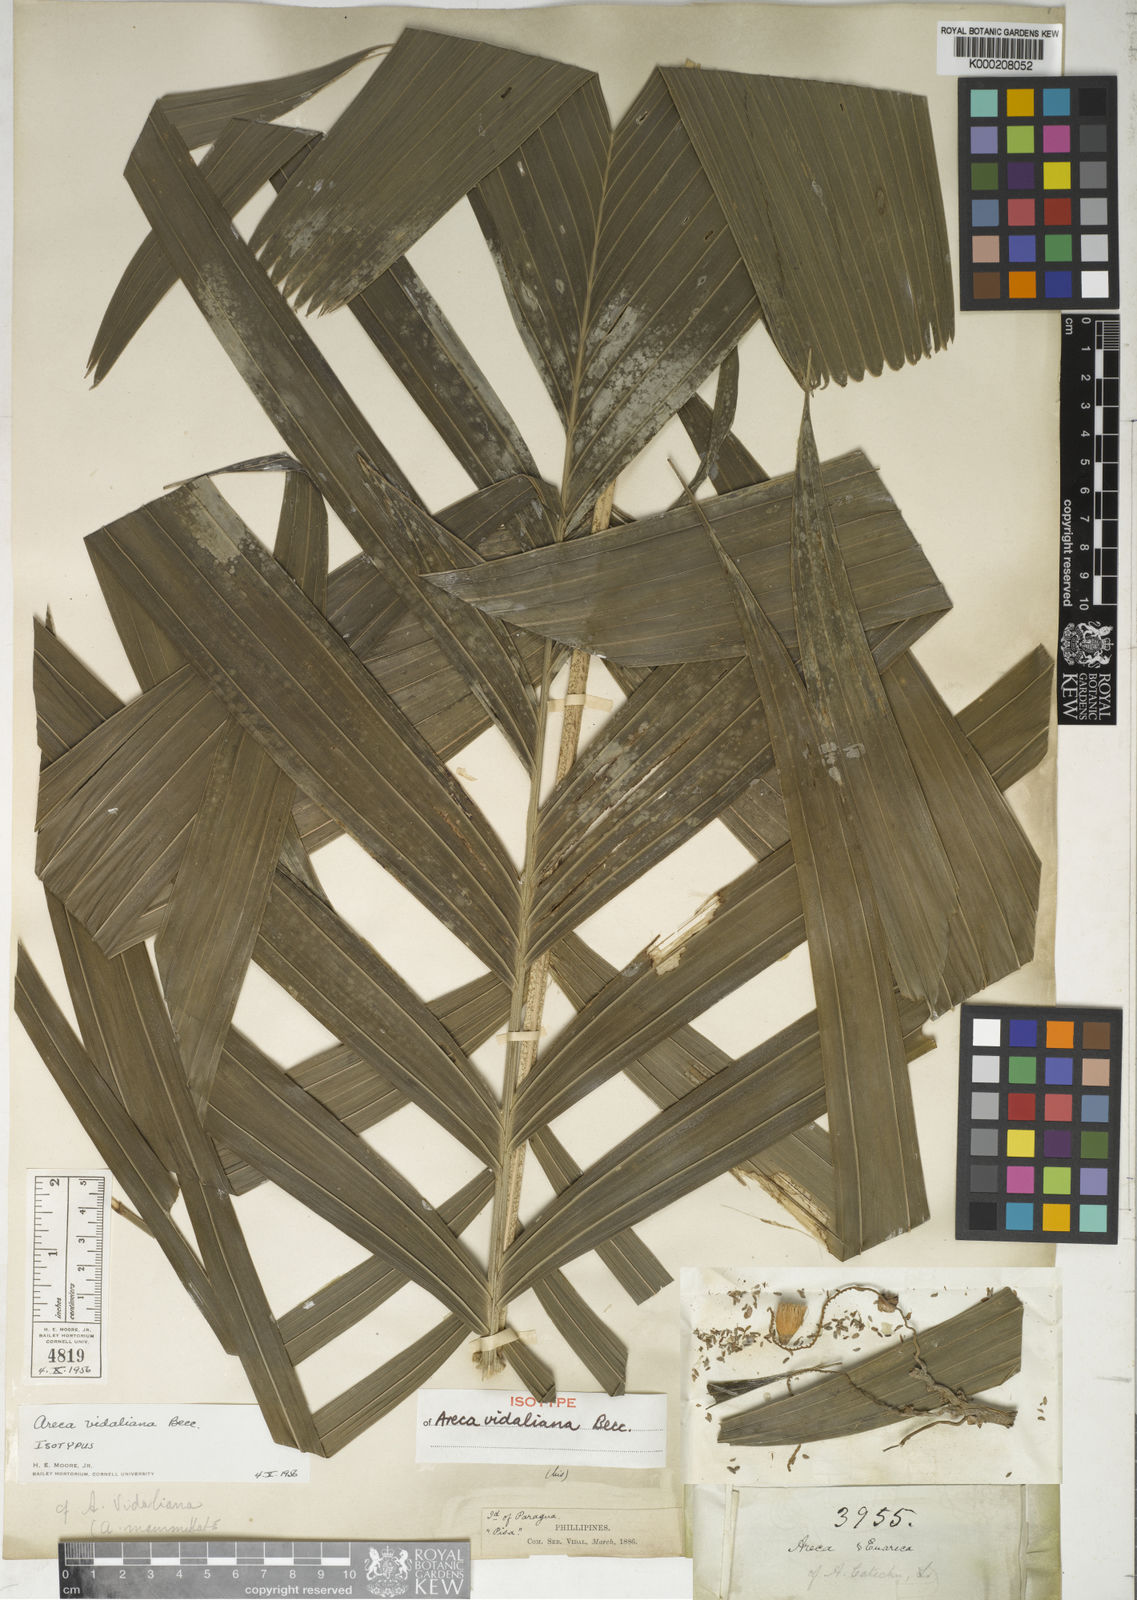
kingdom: Plantae
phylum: Tracheophyta
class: Liliopsida
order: Arecales
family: Arecaceae
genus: Areca
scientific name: Areca vidaliana
